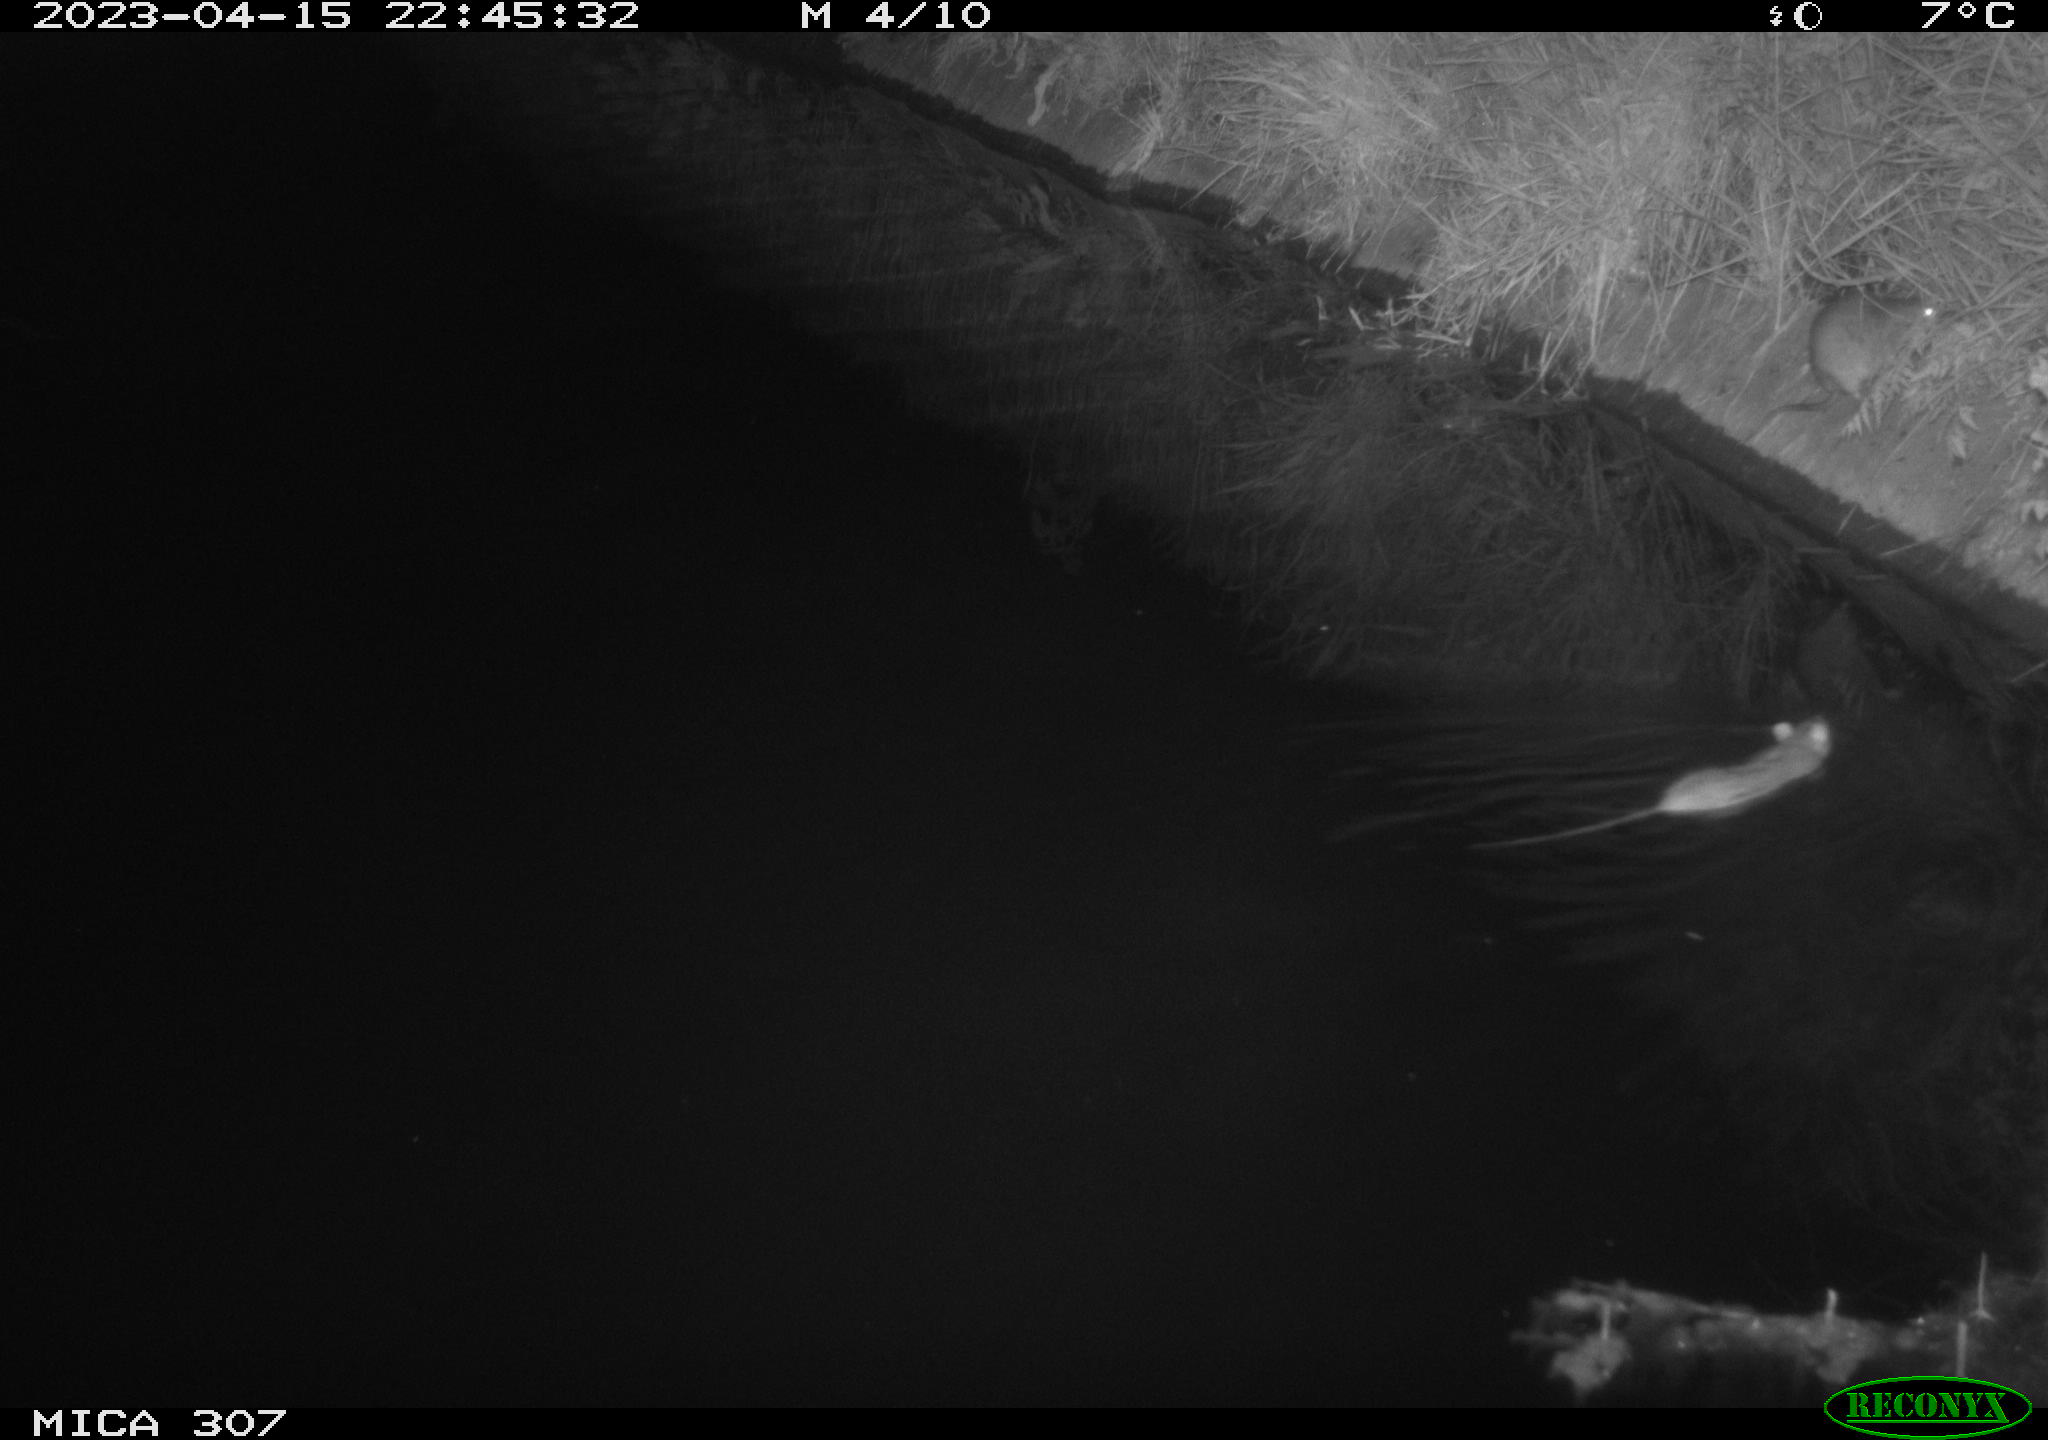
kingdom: Animalia
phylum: Chordata
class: Mammalia
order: Rodentia
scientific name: Rodentia
